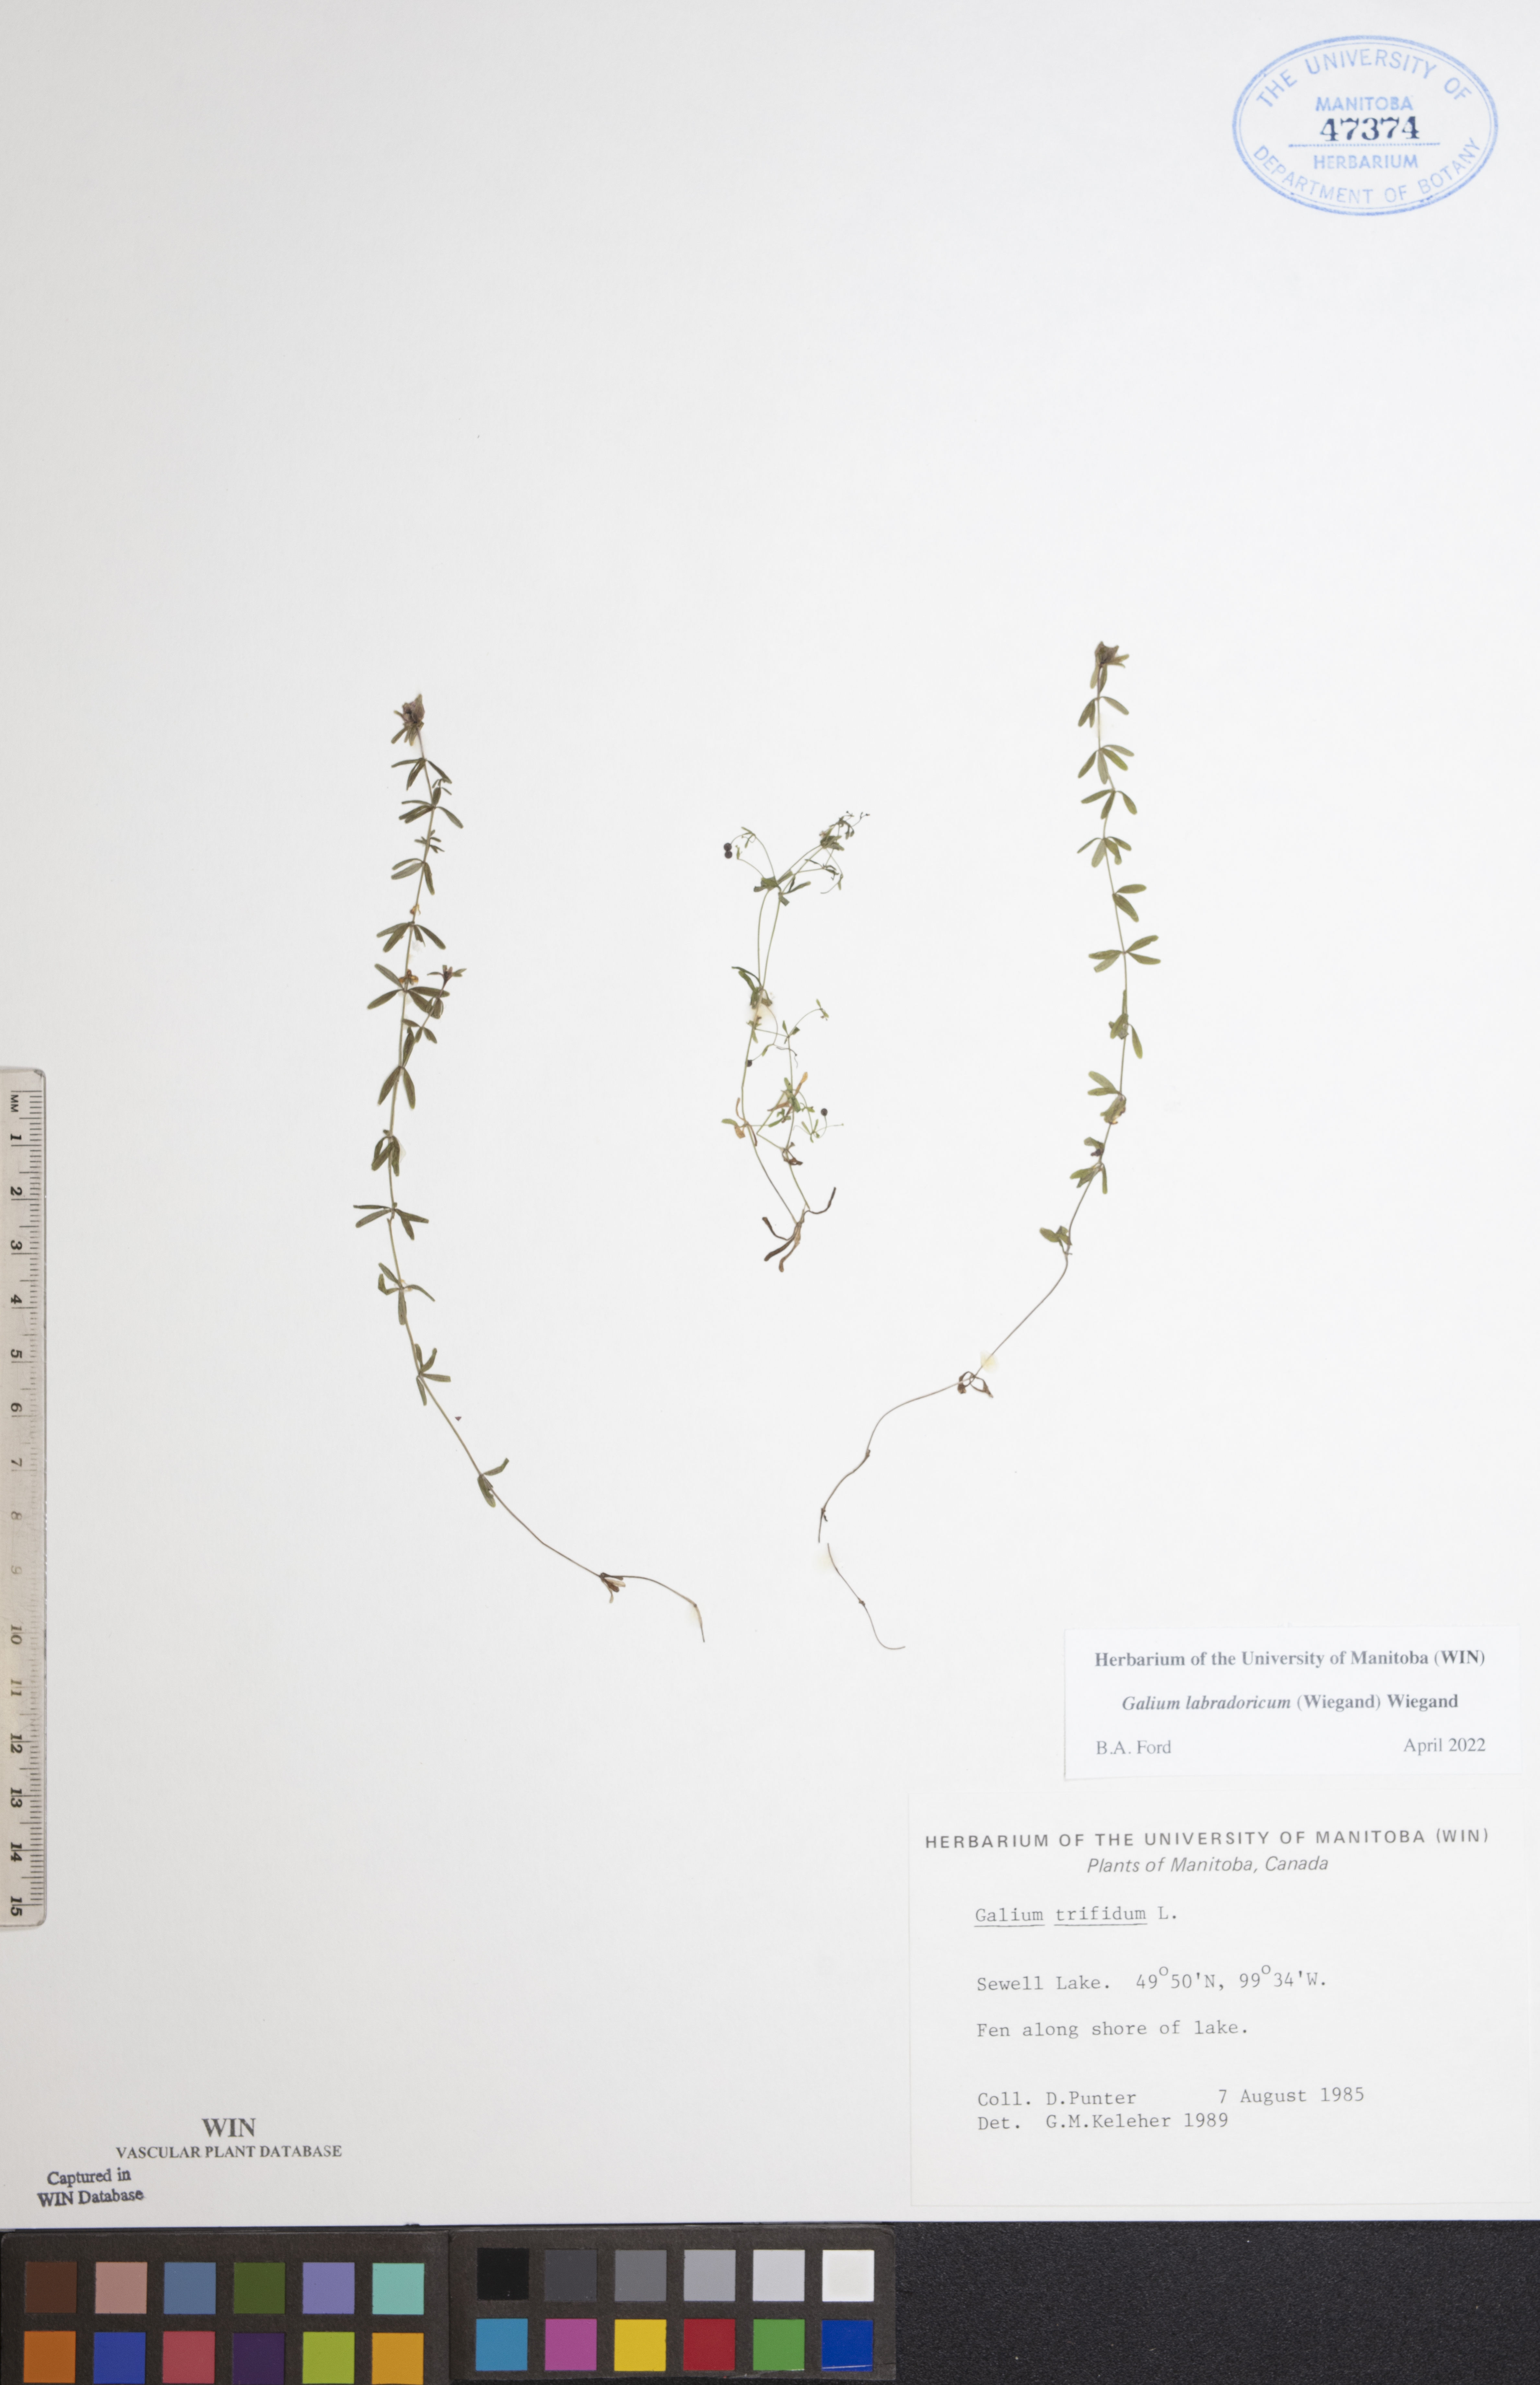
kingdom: Plantae
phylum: Tracheophyta
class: Magnoliopsida
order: Gentianales
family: Rubiaceae
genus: Galium
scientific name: Galium labradoricum
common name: Labrador bedstraw
